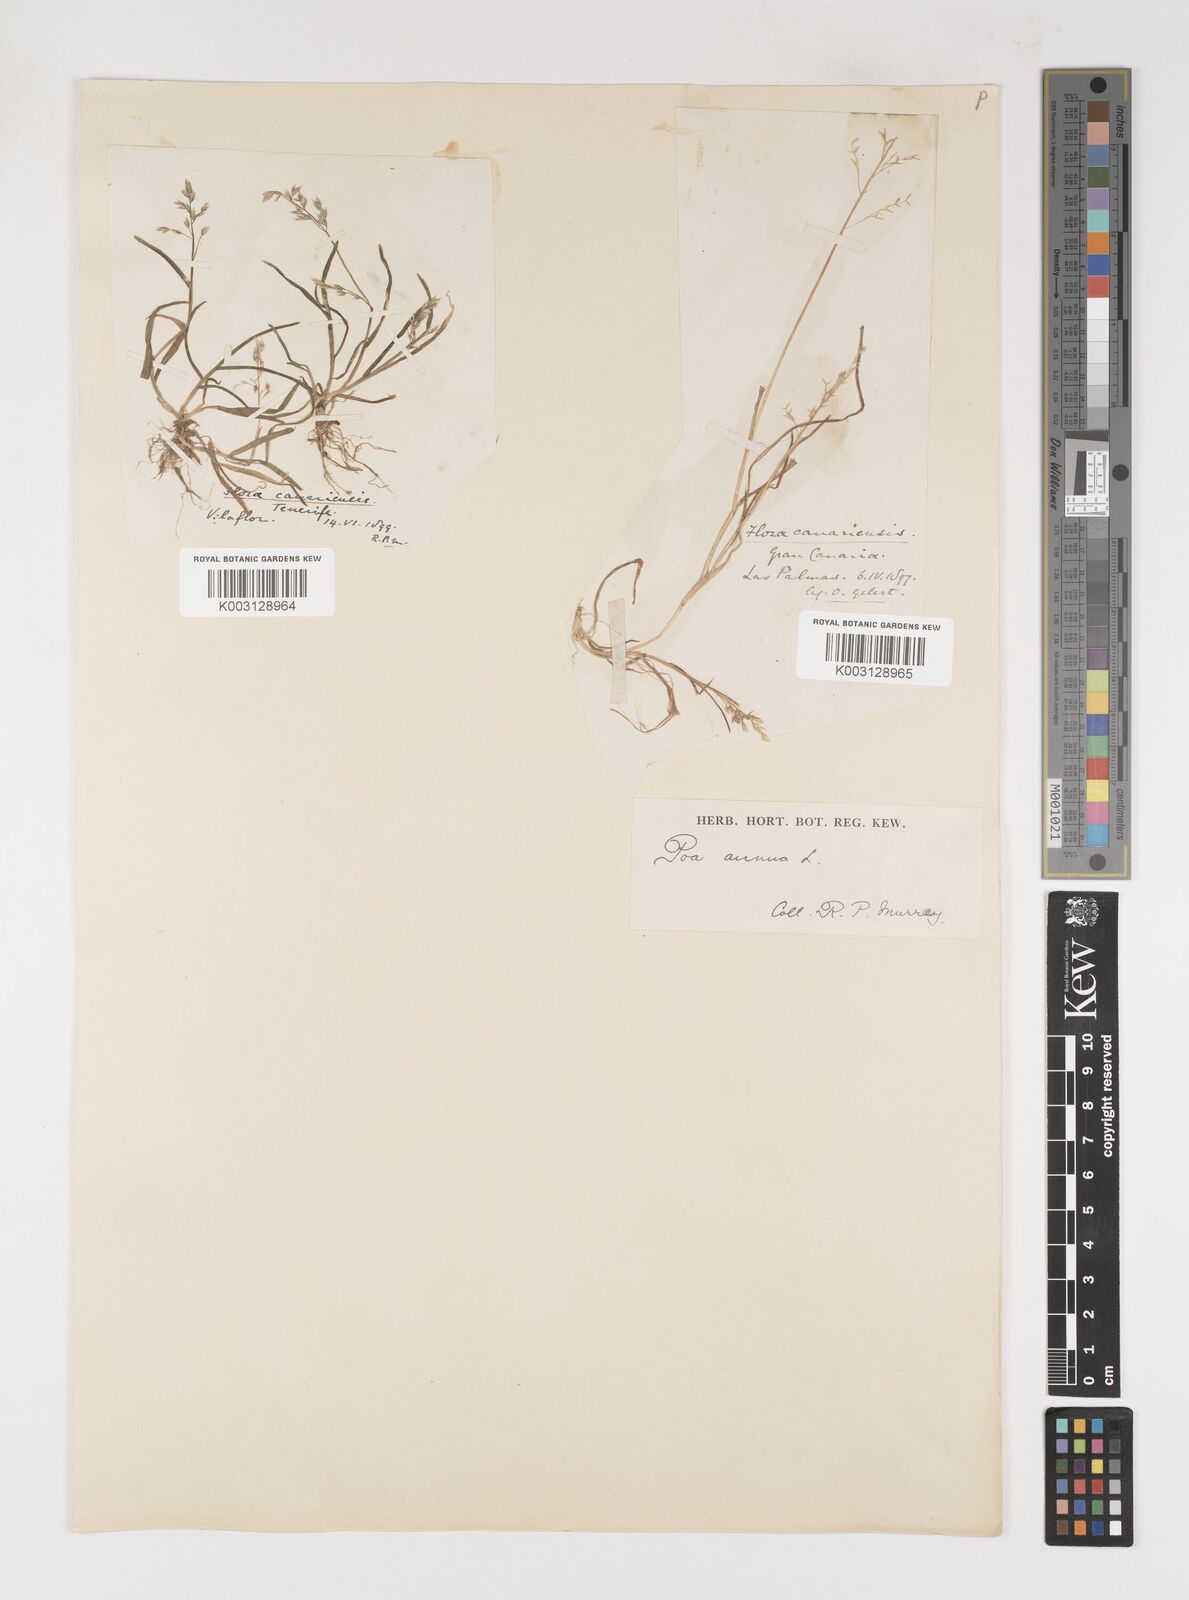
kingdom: Plantae
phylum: Tracheophyta
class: Liliopsida
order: Poales
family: Poaceae
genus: Poa
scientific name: Poa annua
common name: Annual bluegrass
